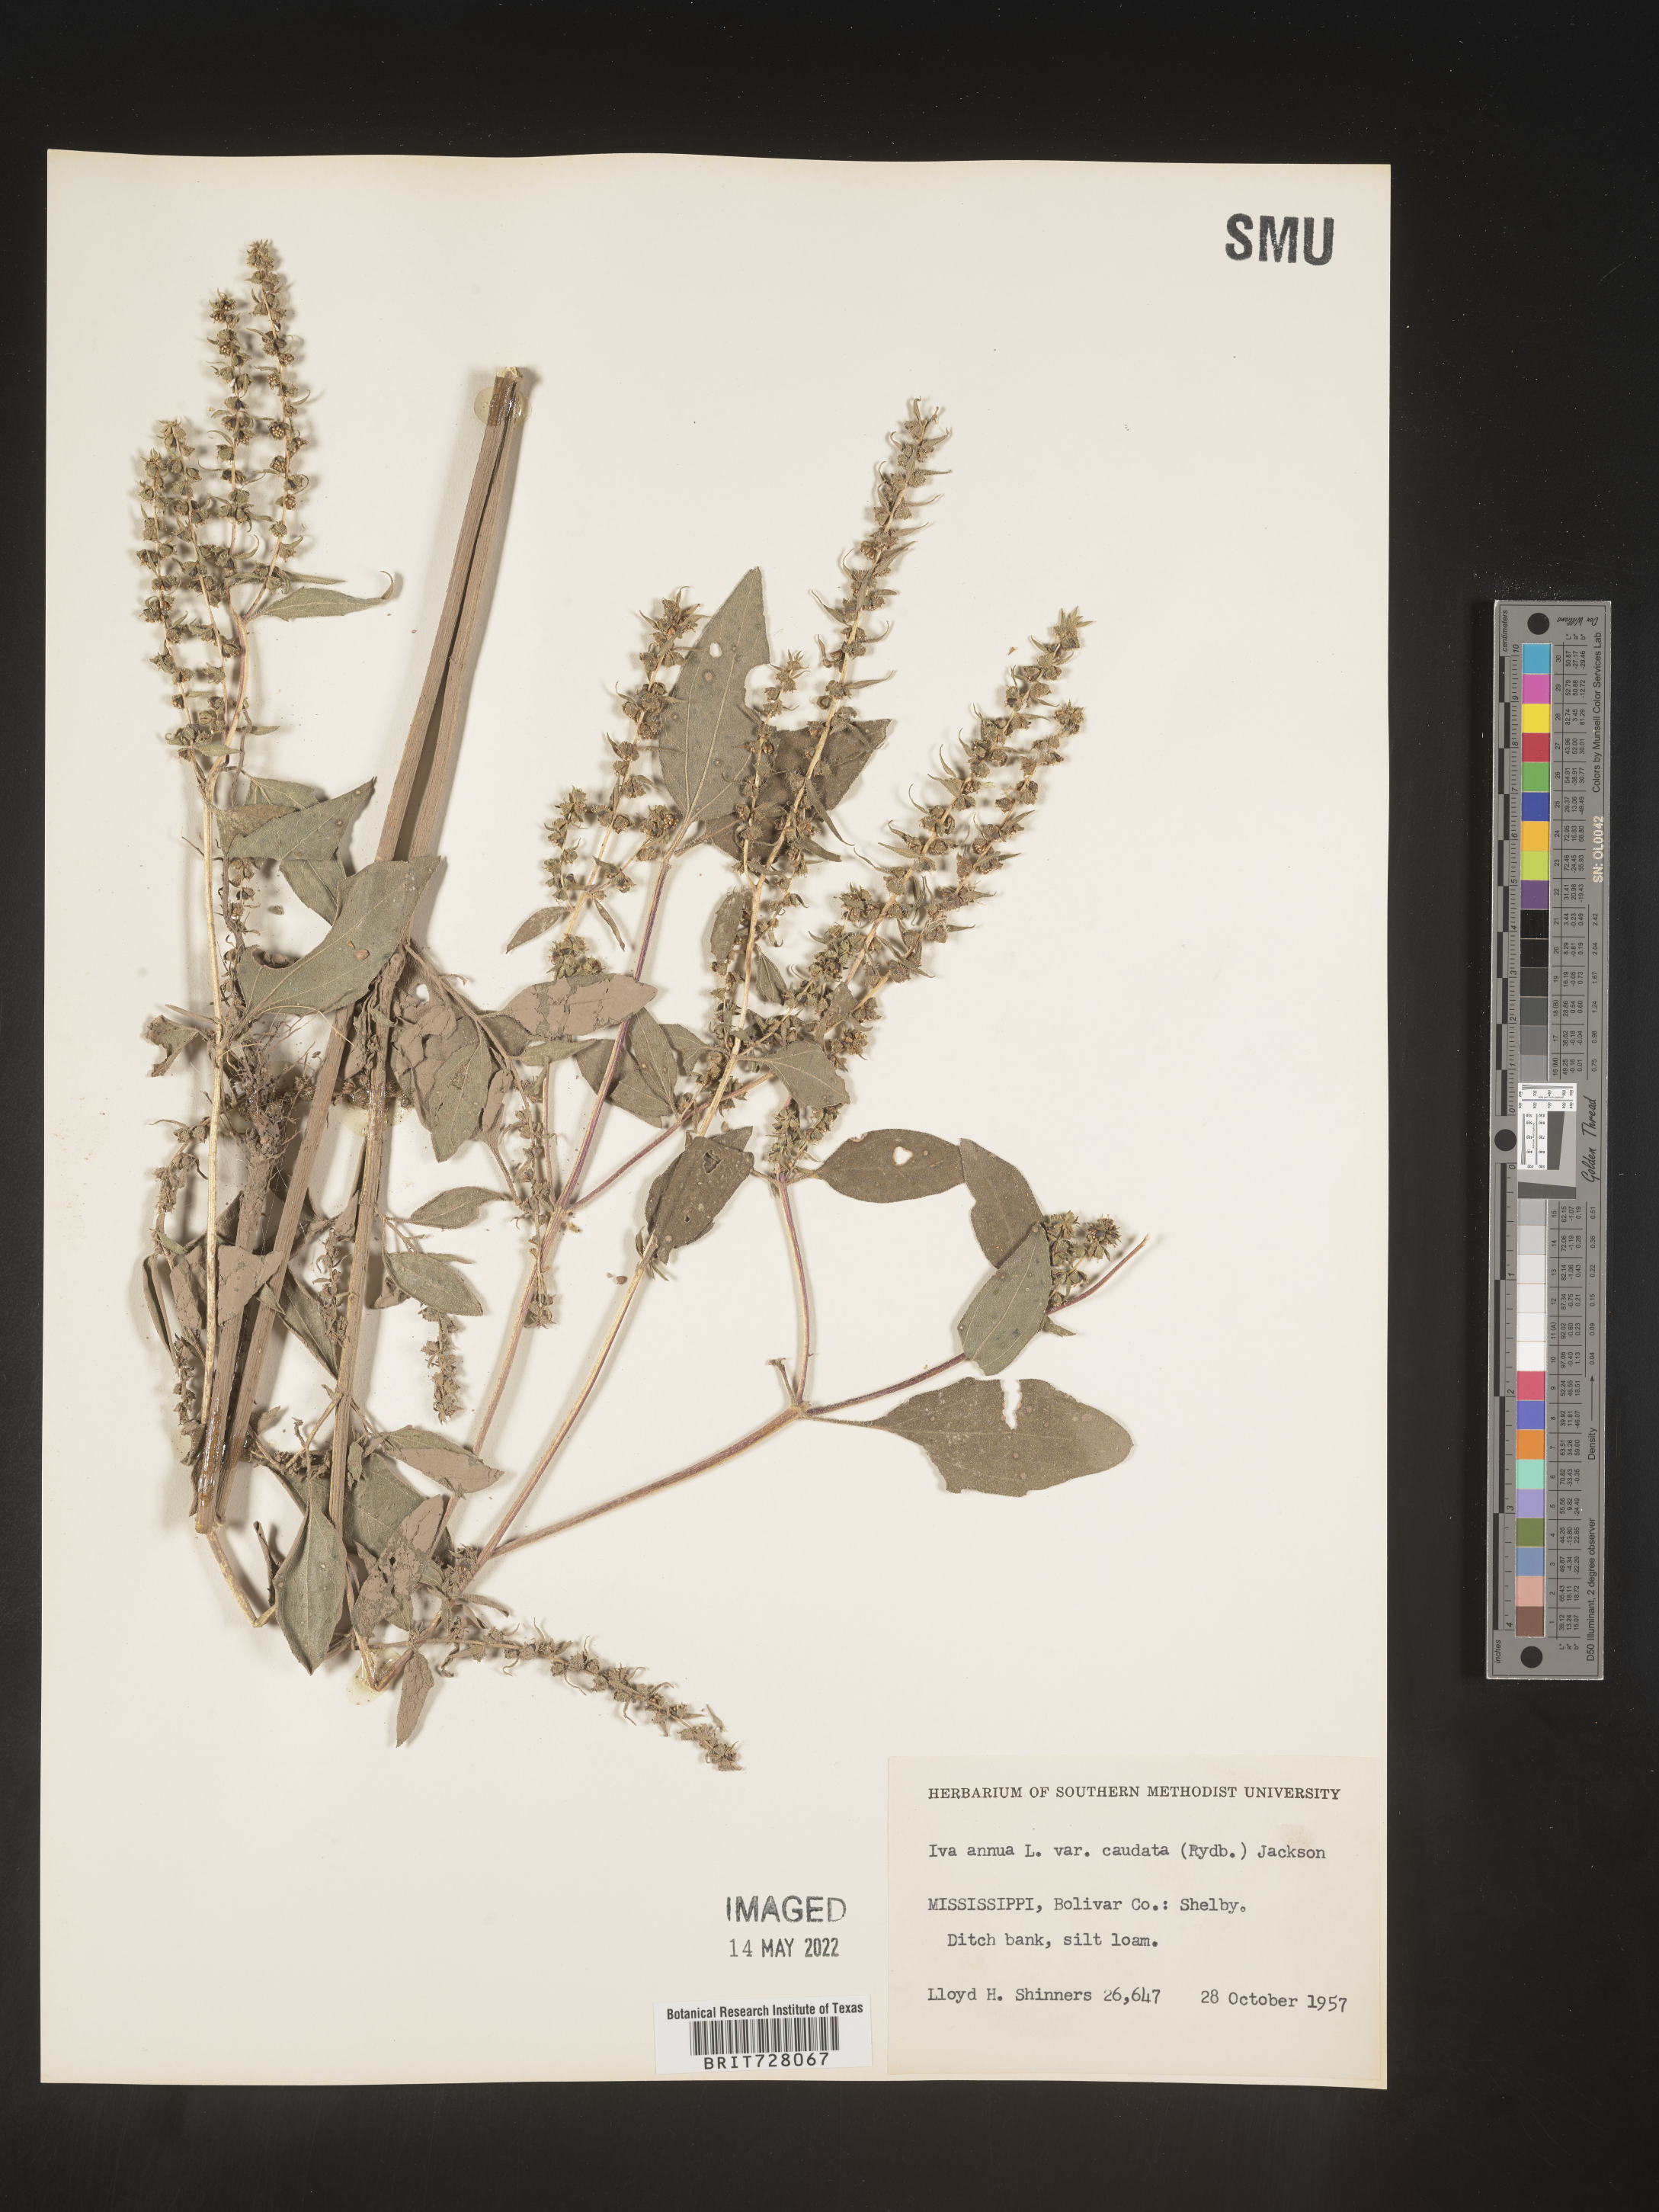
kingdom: Plantae
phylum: Tracheophyta
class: Magnoliopsida
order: Asterales
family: Asteraceae
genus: Iva
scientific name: Iva annua
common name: Marsh-elder
